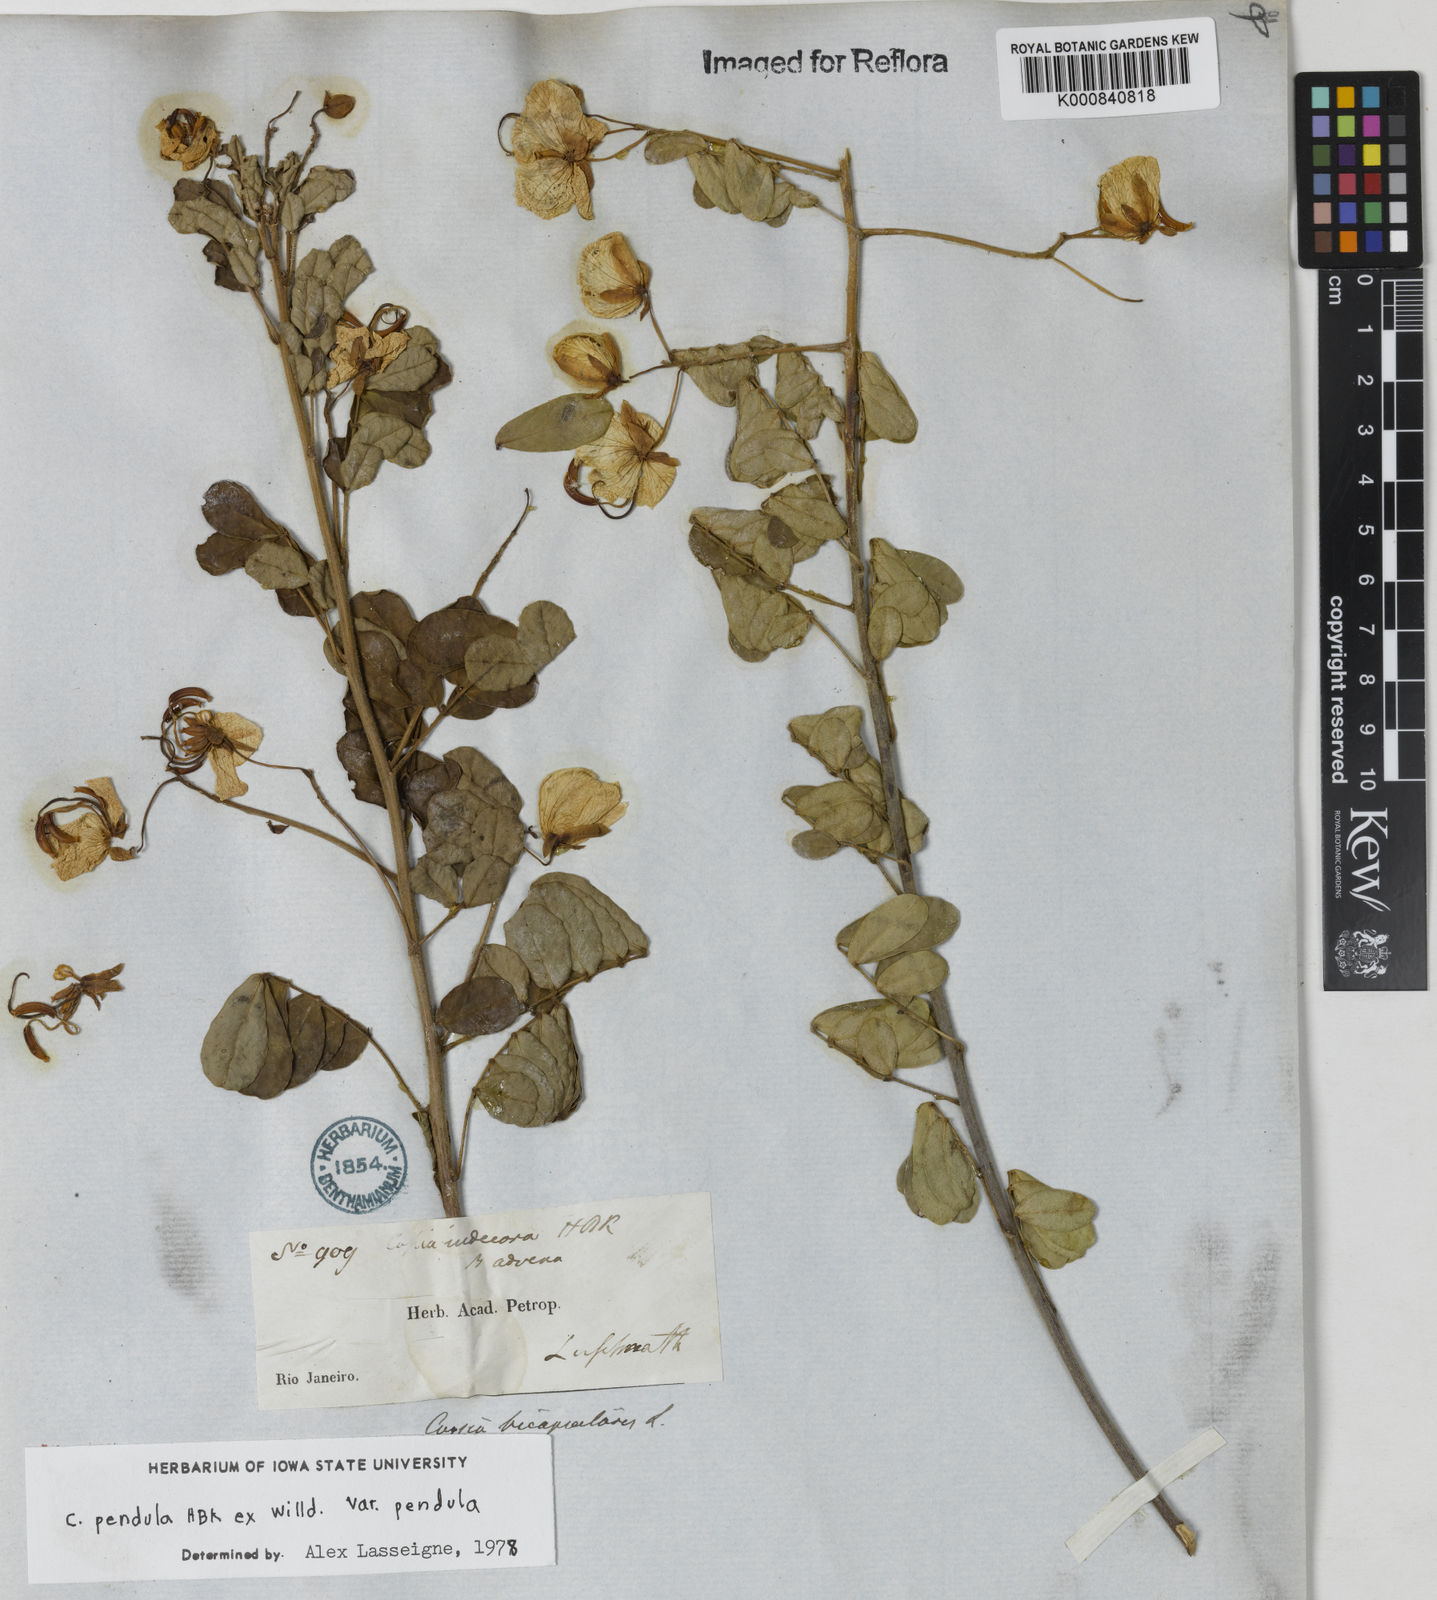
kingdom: Plantae
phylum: Tracheophyta
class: Magnoliopsida
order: Fabales
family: Fabaceae
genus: Senna
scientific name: Senna pendula
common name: Easter cassia
